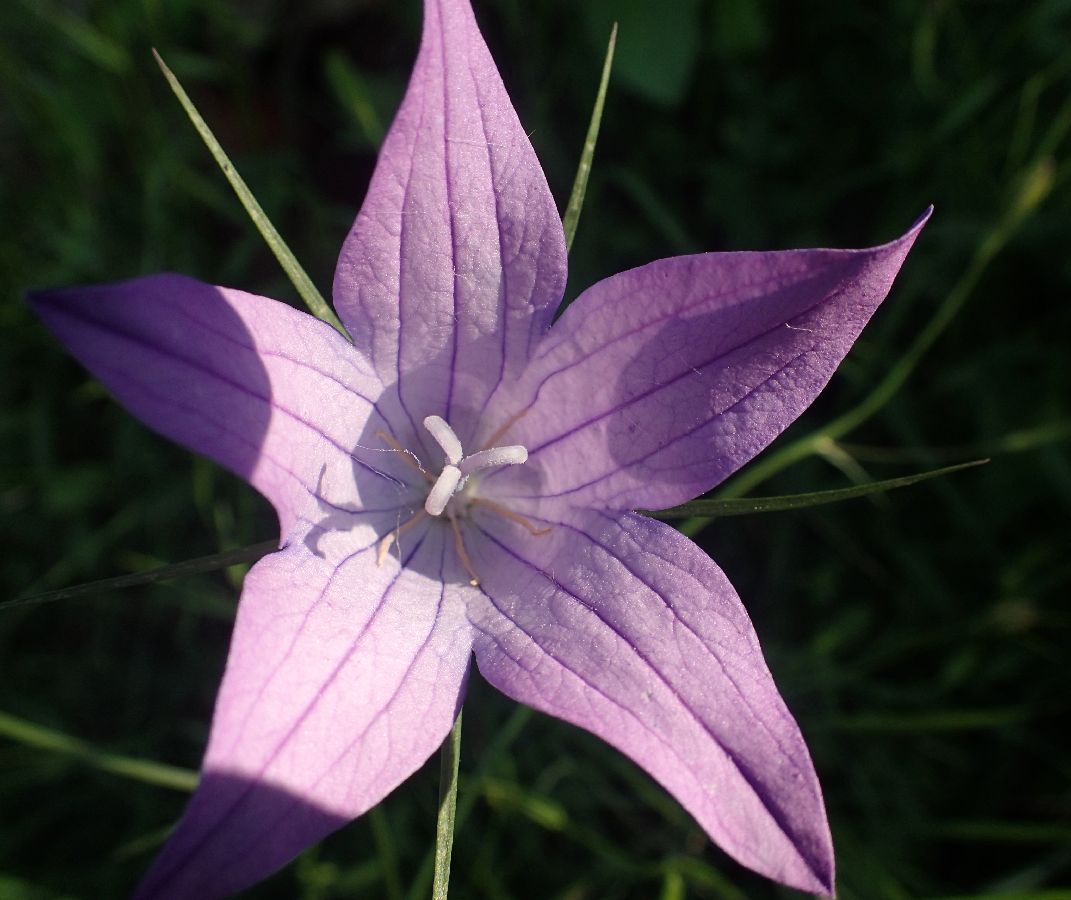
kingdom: Plantae
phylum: Tracheophyta
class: Magnoliopsida
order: Asterales
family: Campanulaceae
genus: Campanula
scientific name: Campanula spatulata
